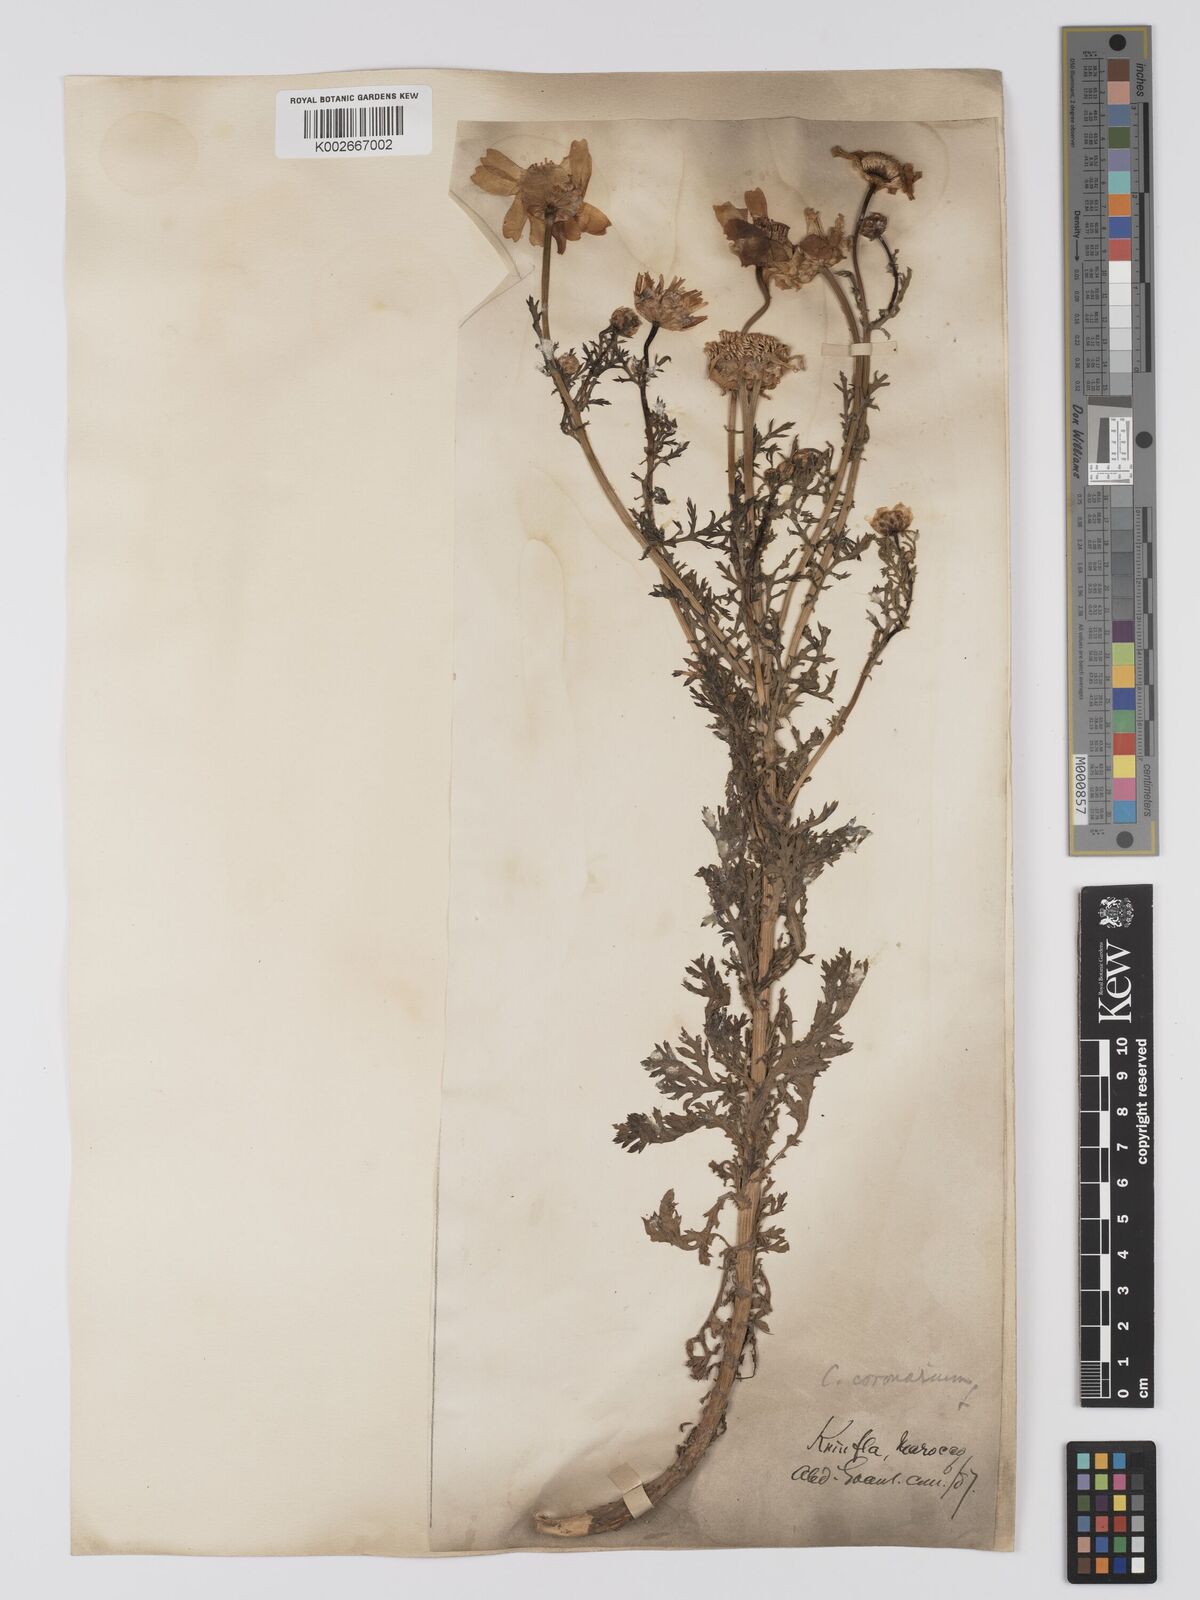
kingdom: Plantae
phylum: Tracheophyta
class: Magnoliopsida
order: Asterales
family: Asteraceae
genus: Glebionis
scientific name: Glebionis coronaria
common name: Crowndaisy
